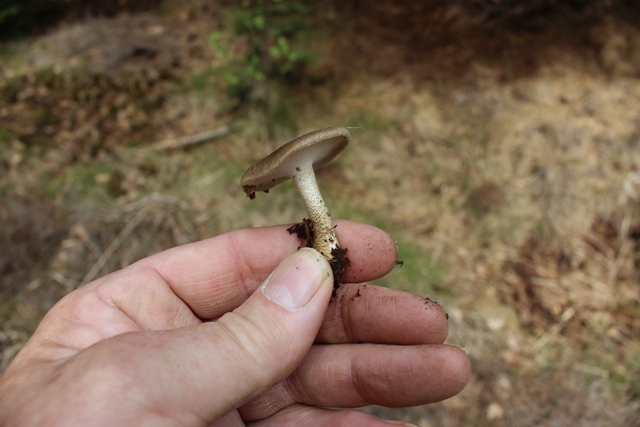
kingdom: Fungi
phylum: Basidiomycota
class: Agaricomycetes
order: Polyporales
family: Polyporaceae
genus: Lentinus
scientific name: Lentinus substrictus
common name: forårs-stilkporesvamp
